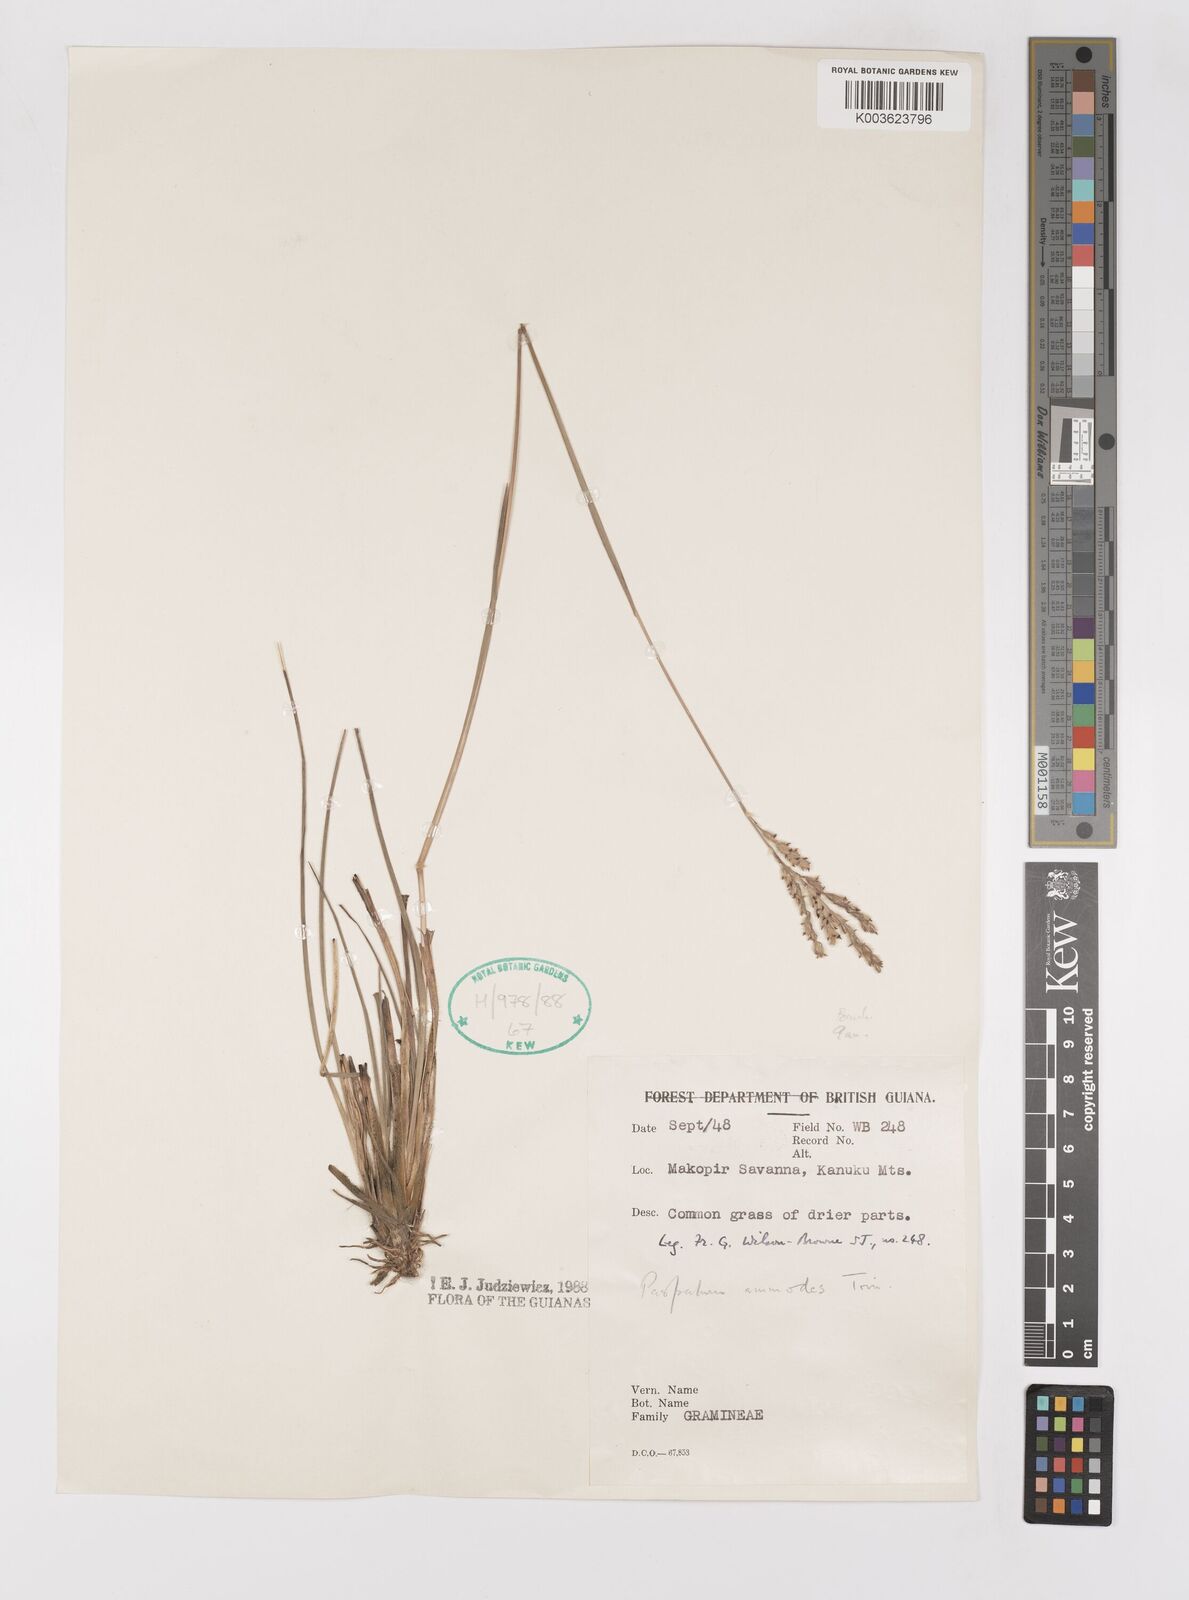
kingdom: Plantae
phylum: Tracheophyta
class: Liliopsida
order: Poales
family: Poaceae
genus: Paspalum
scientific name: Paspalum ammodes
